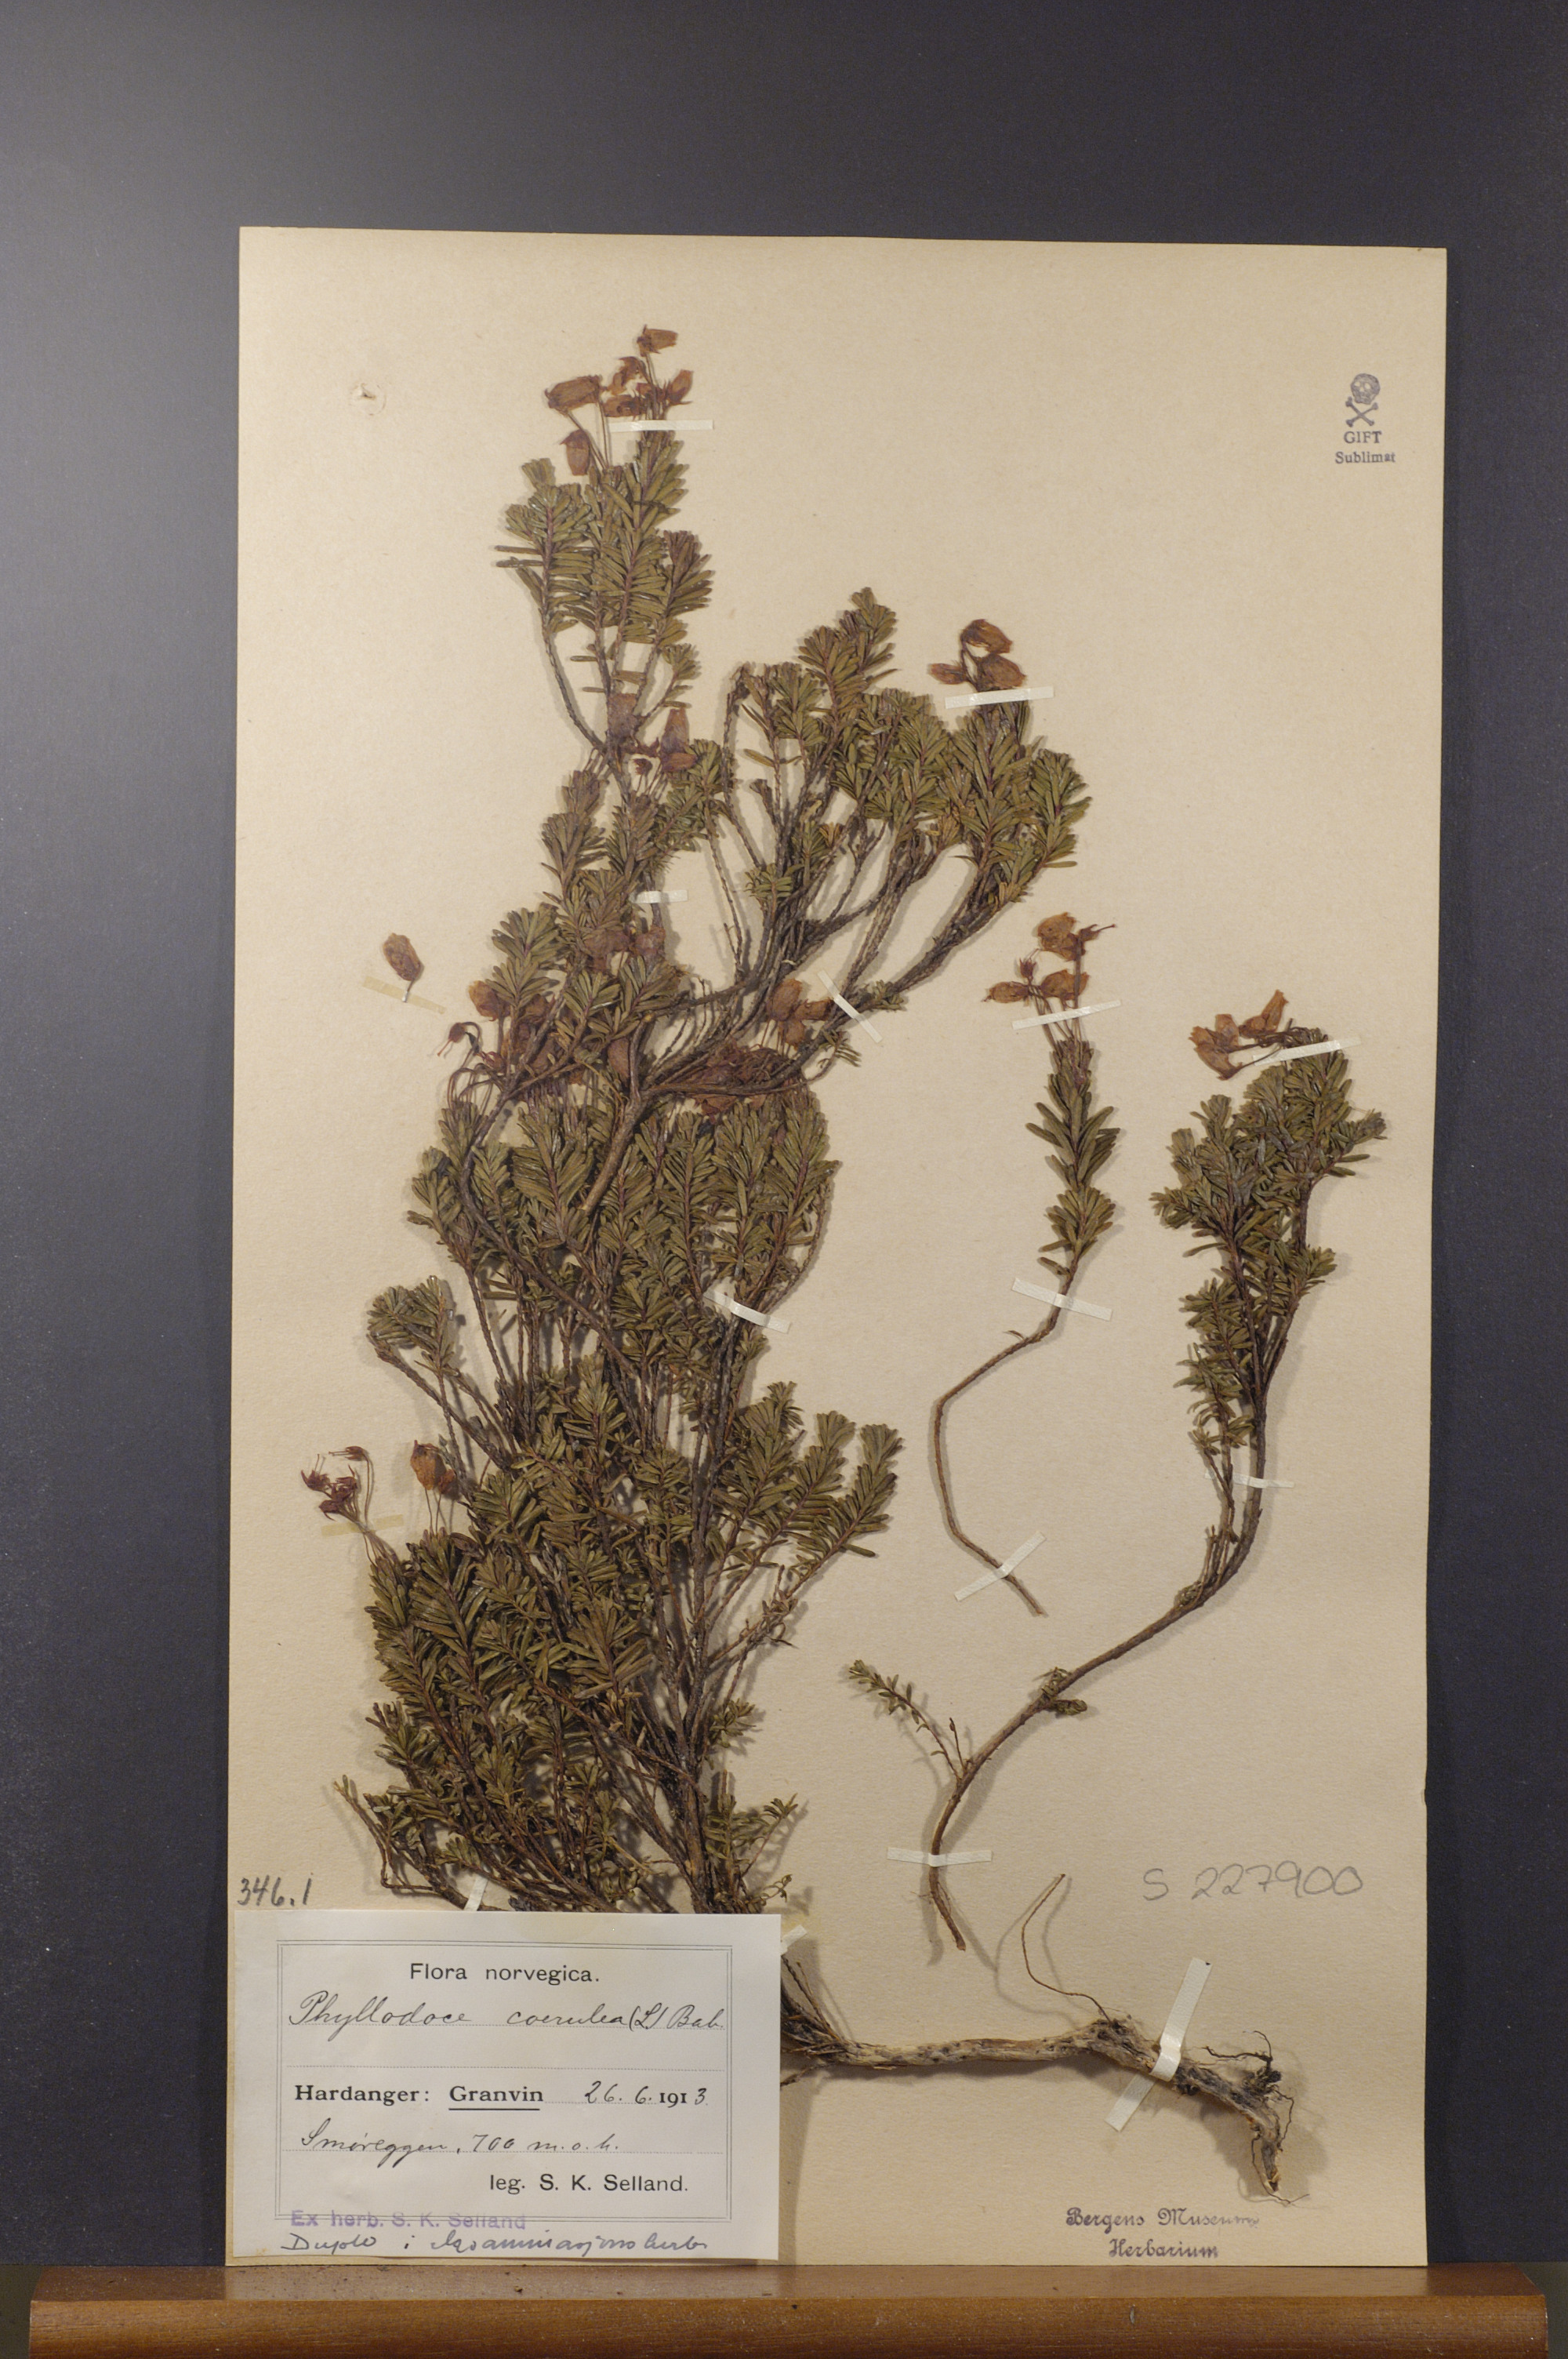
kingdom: Plantae
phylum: Tracheophyta
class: Magnoliopsida
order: Ericales
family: Ericaceae
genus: Phyllodoce
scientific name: Phyllodoce caerulea
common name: Blue heath
